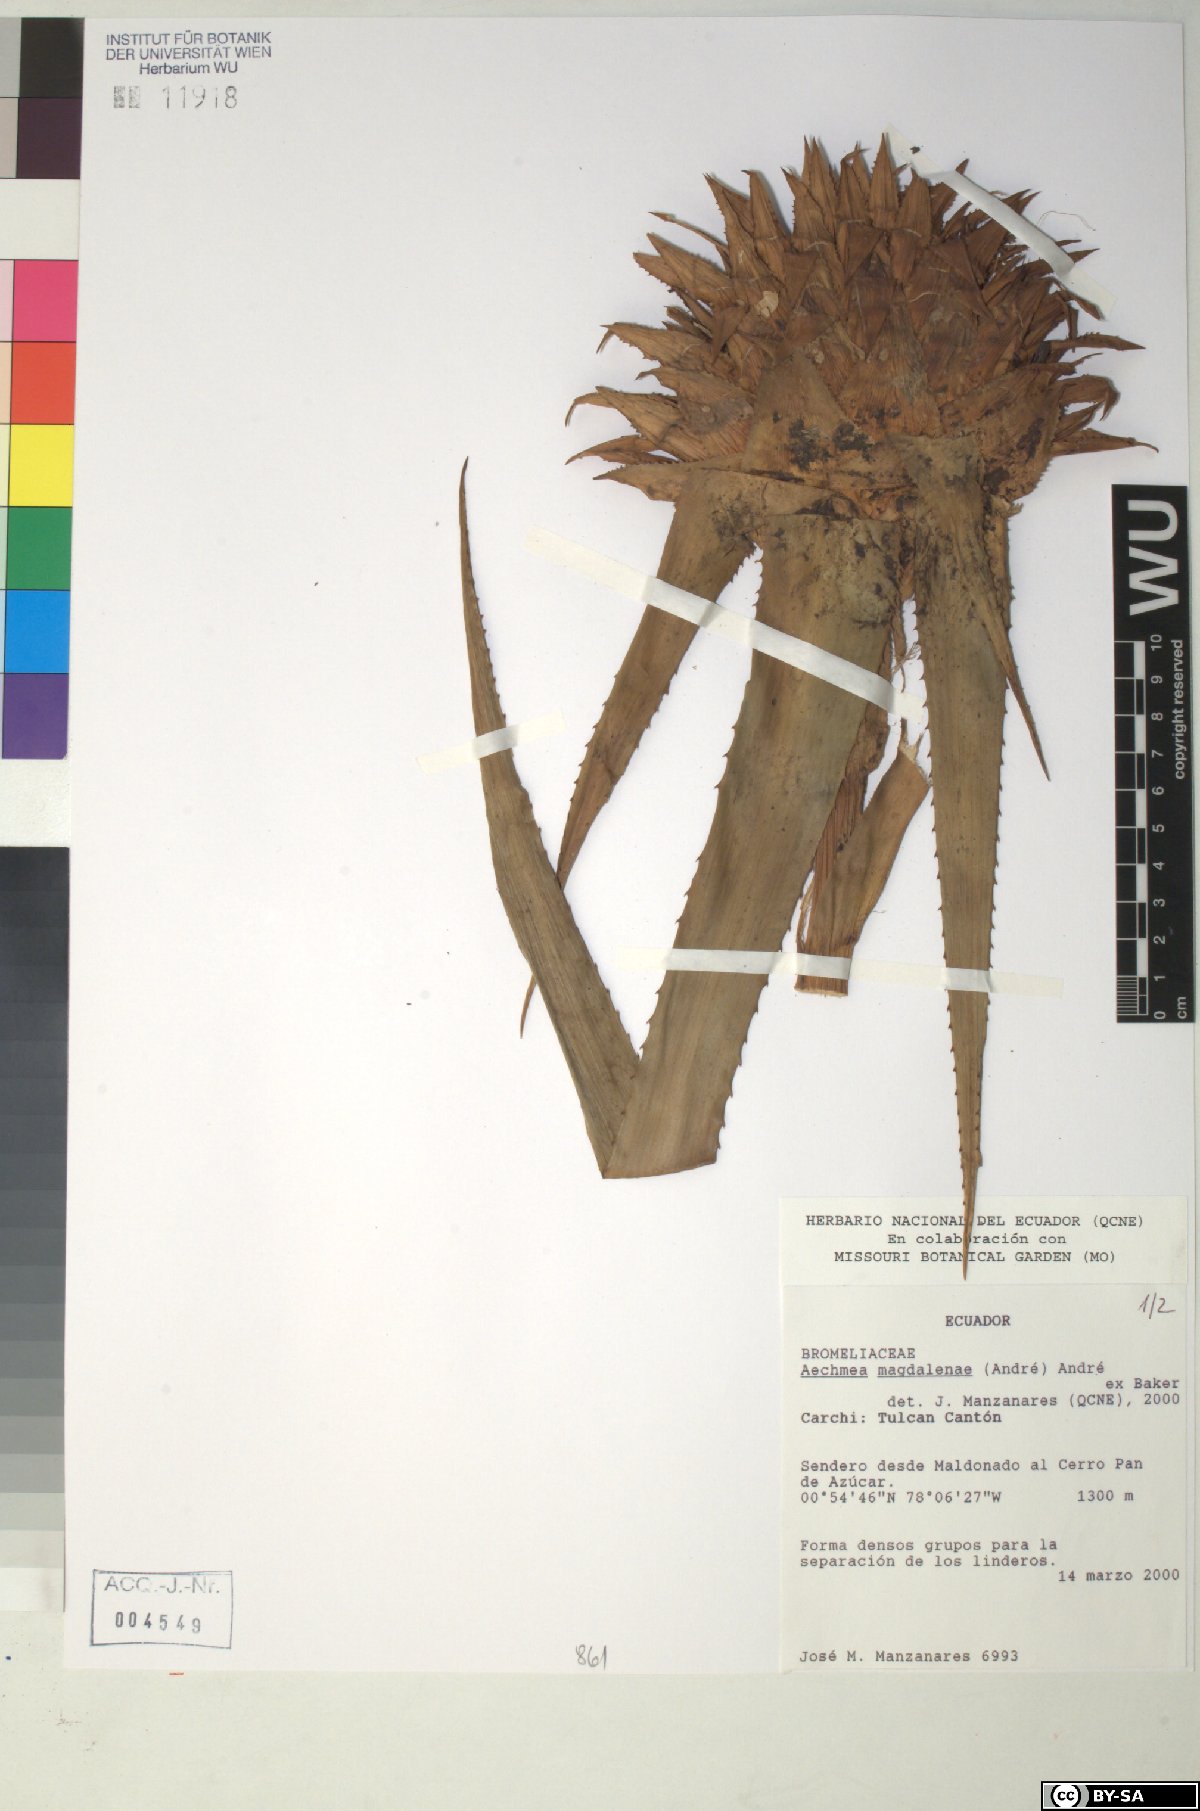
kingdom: Plantae
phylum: Tracheophyta
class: Liliopsida
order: Poales
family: Bromeliaceae
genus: Aechmea
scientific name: Aechmea magdalenae
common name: Arghan
